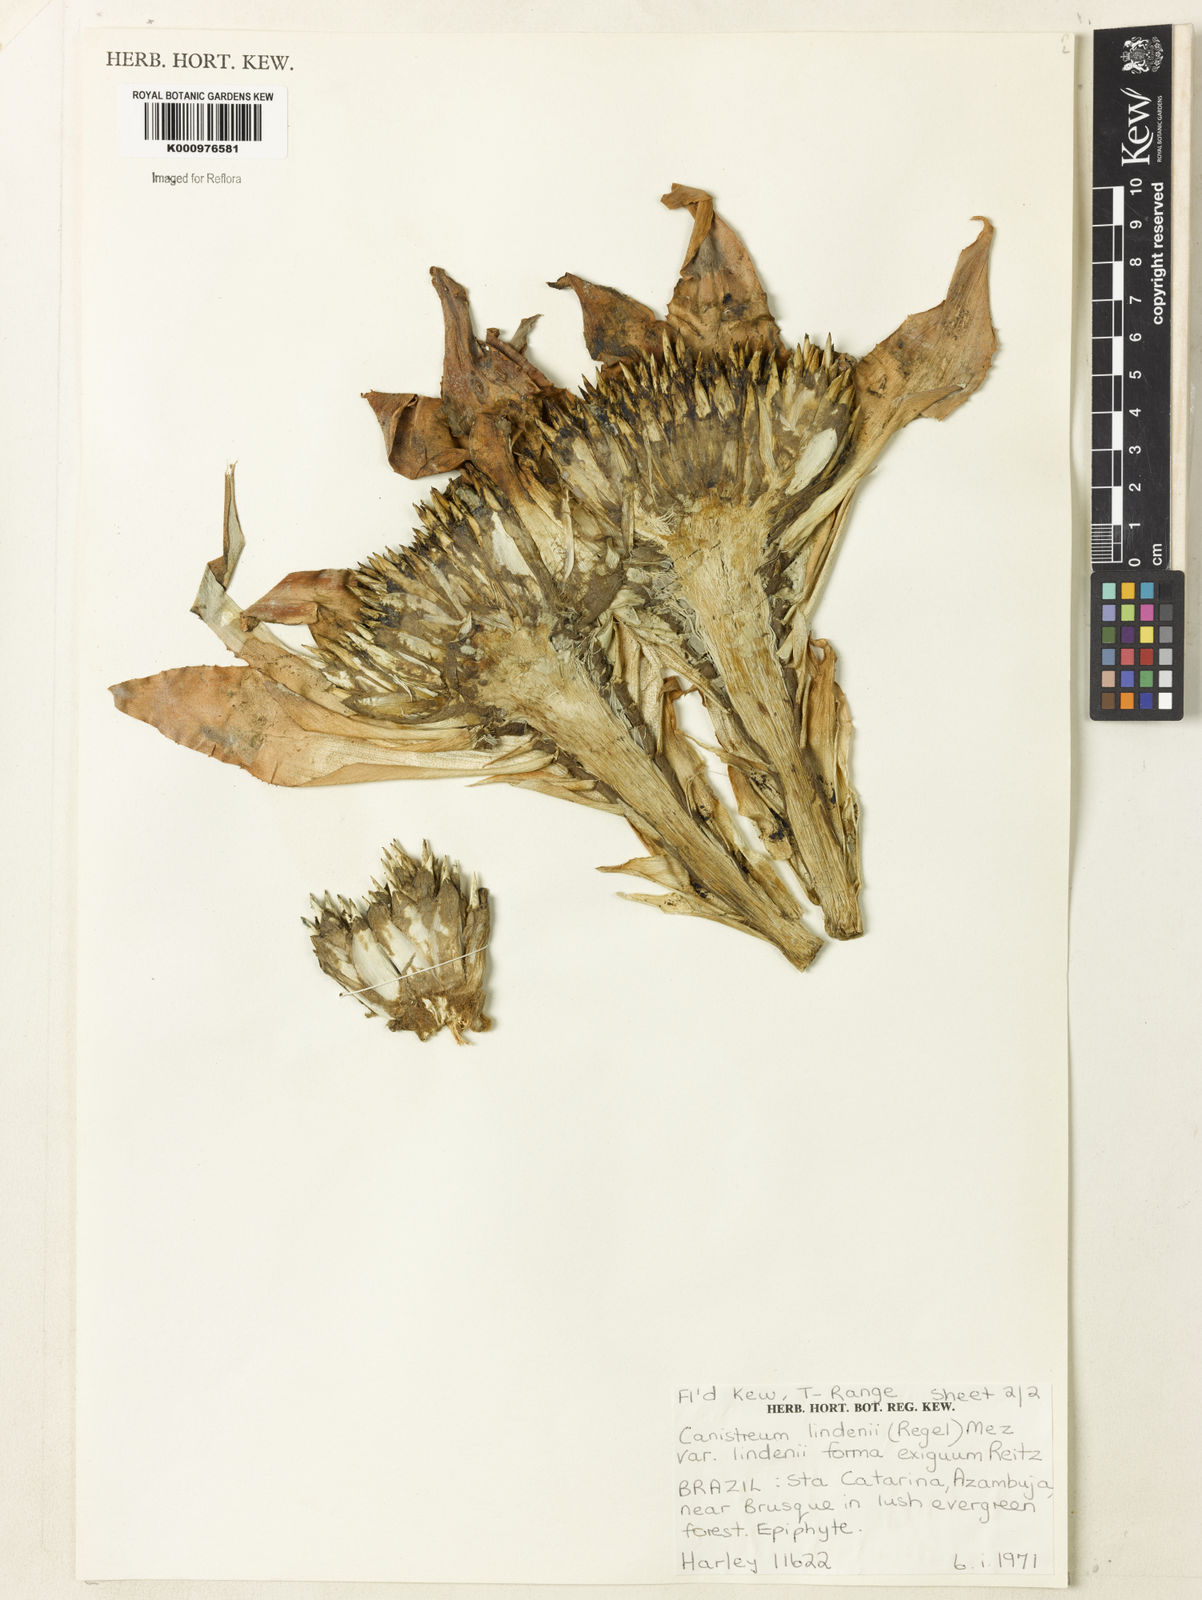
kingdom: Plantae
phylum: Tracheophyta
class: Liliopsida
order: Poales
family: Bromeliaceae
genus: Hohenbergia
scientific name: Hohenbergia augusta
